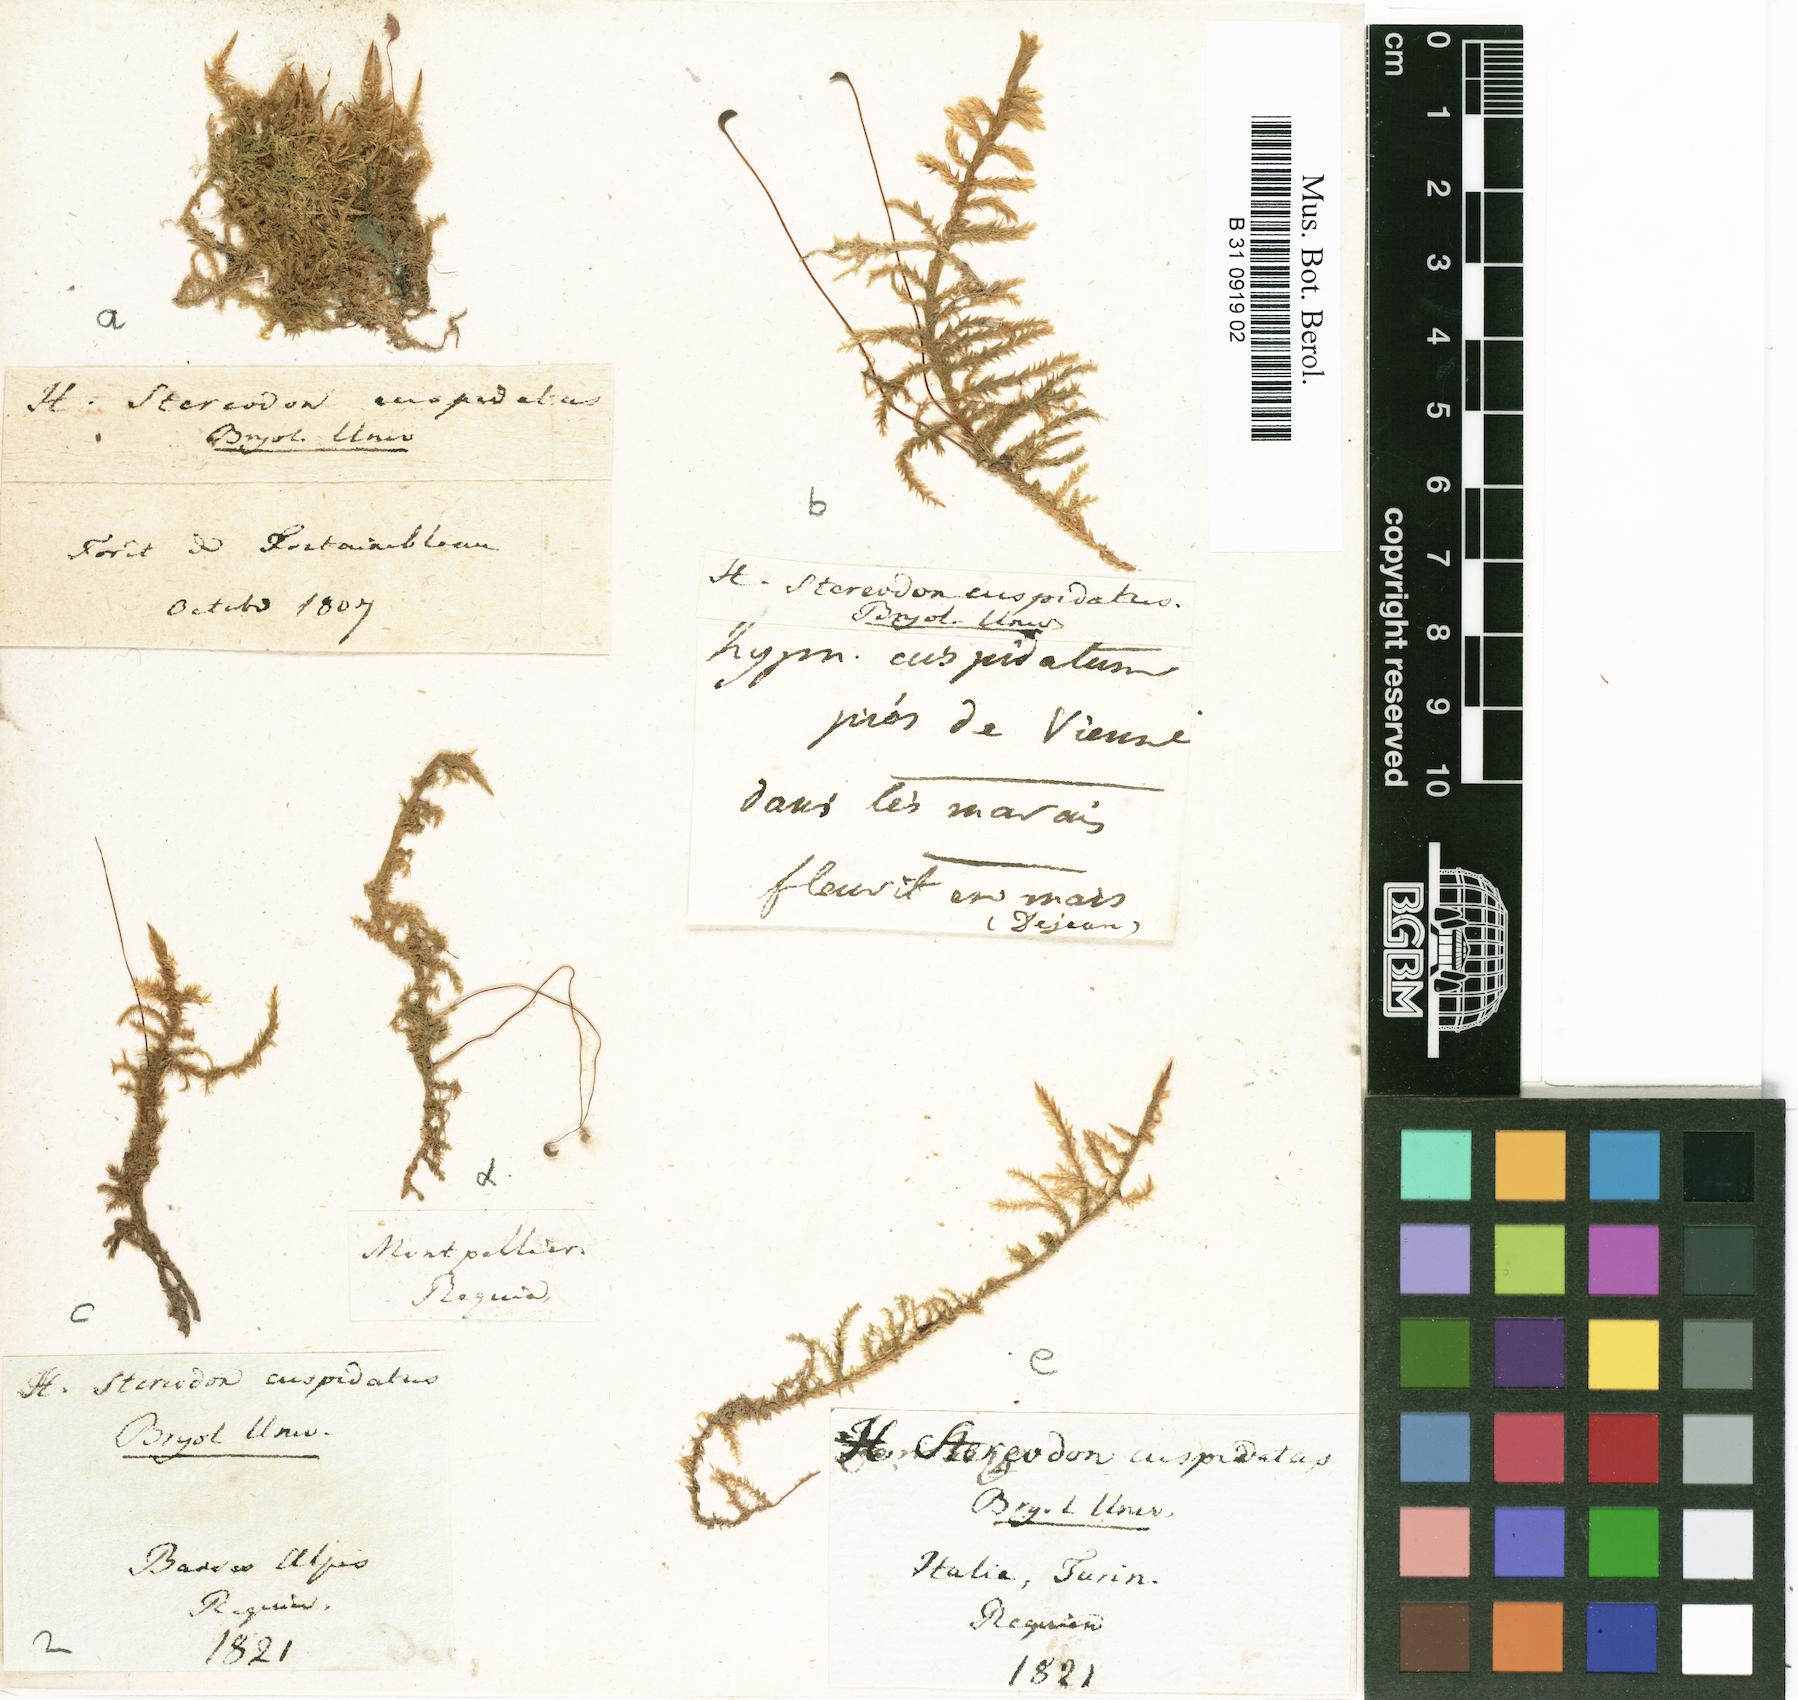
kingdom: Plantae
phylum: Bryophyta
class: Bryopsida
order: Hypnales
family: Pylaisiaceae
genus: Calliergonella
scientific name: Calliergonella cuspidata
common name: Common large wetland moss
